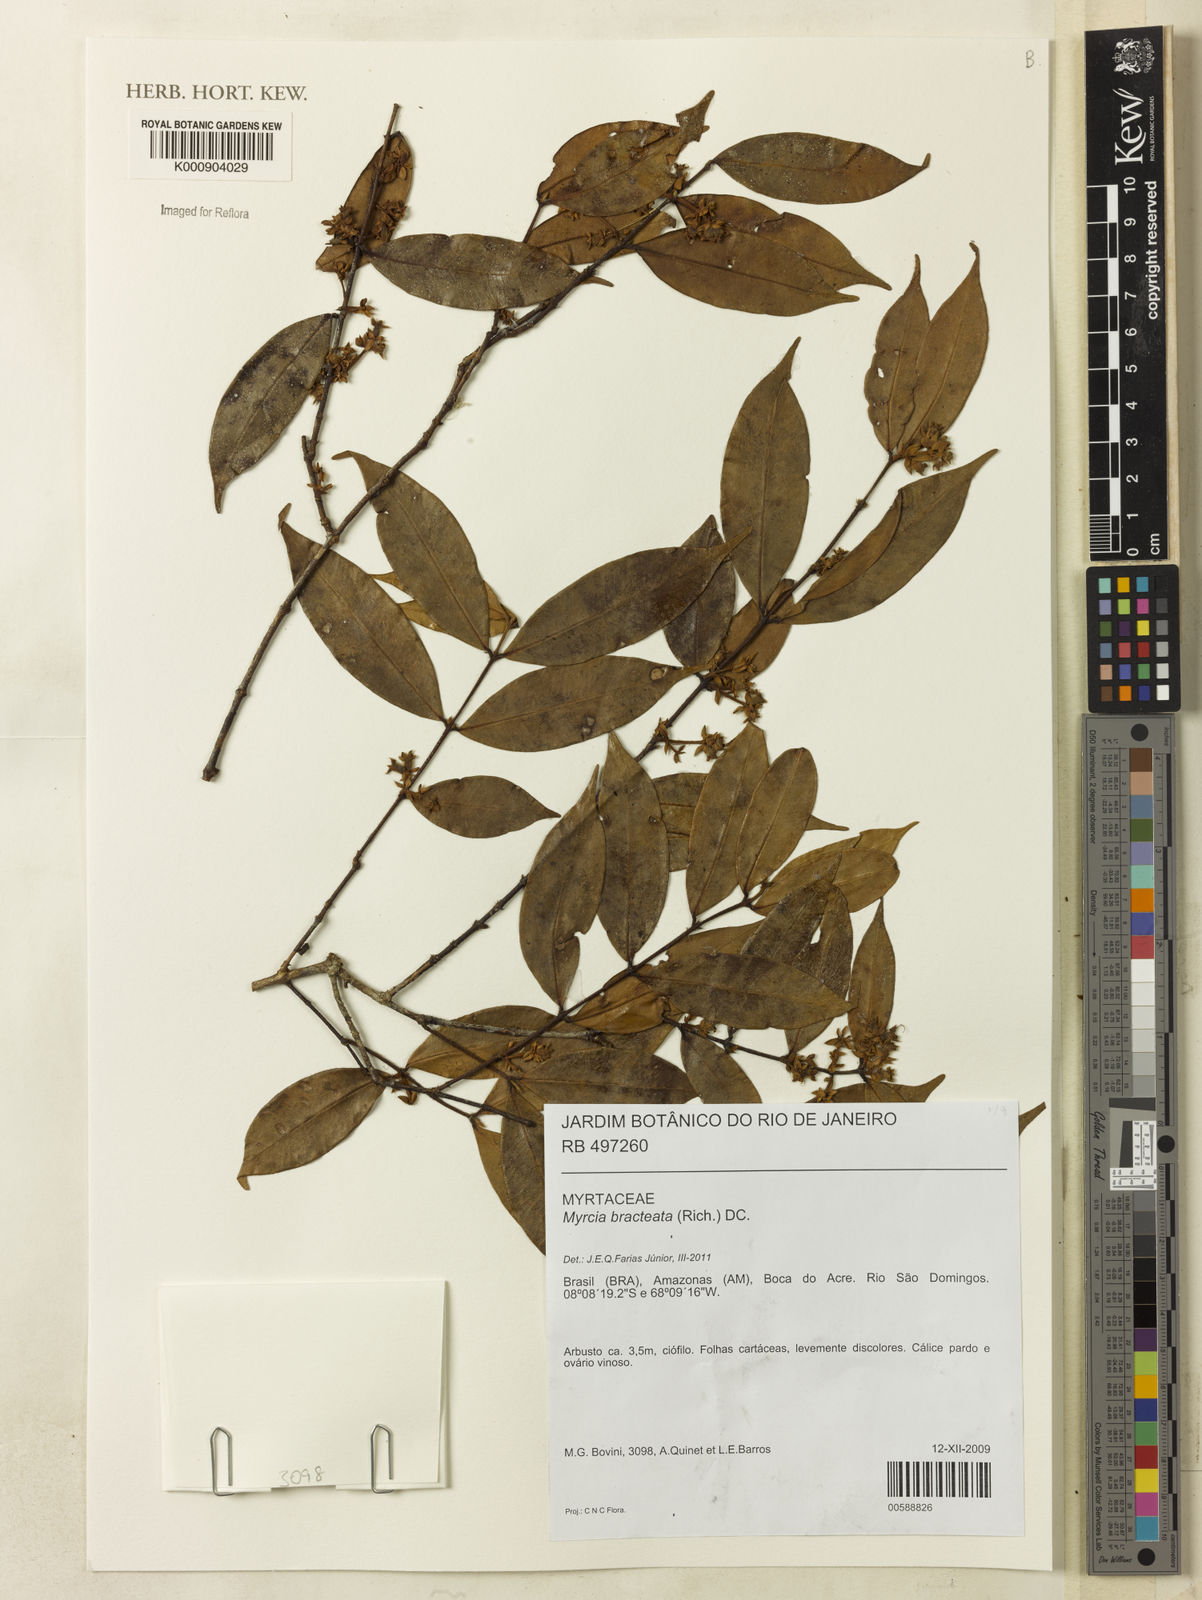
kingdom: Plantae
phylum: Tracheophyta
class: Magnoliopsida
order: Myrtales
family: Myrtaceae
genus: Myrcia
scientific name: Myrcia bracteata
